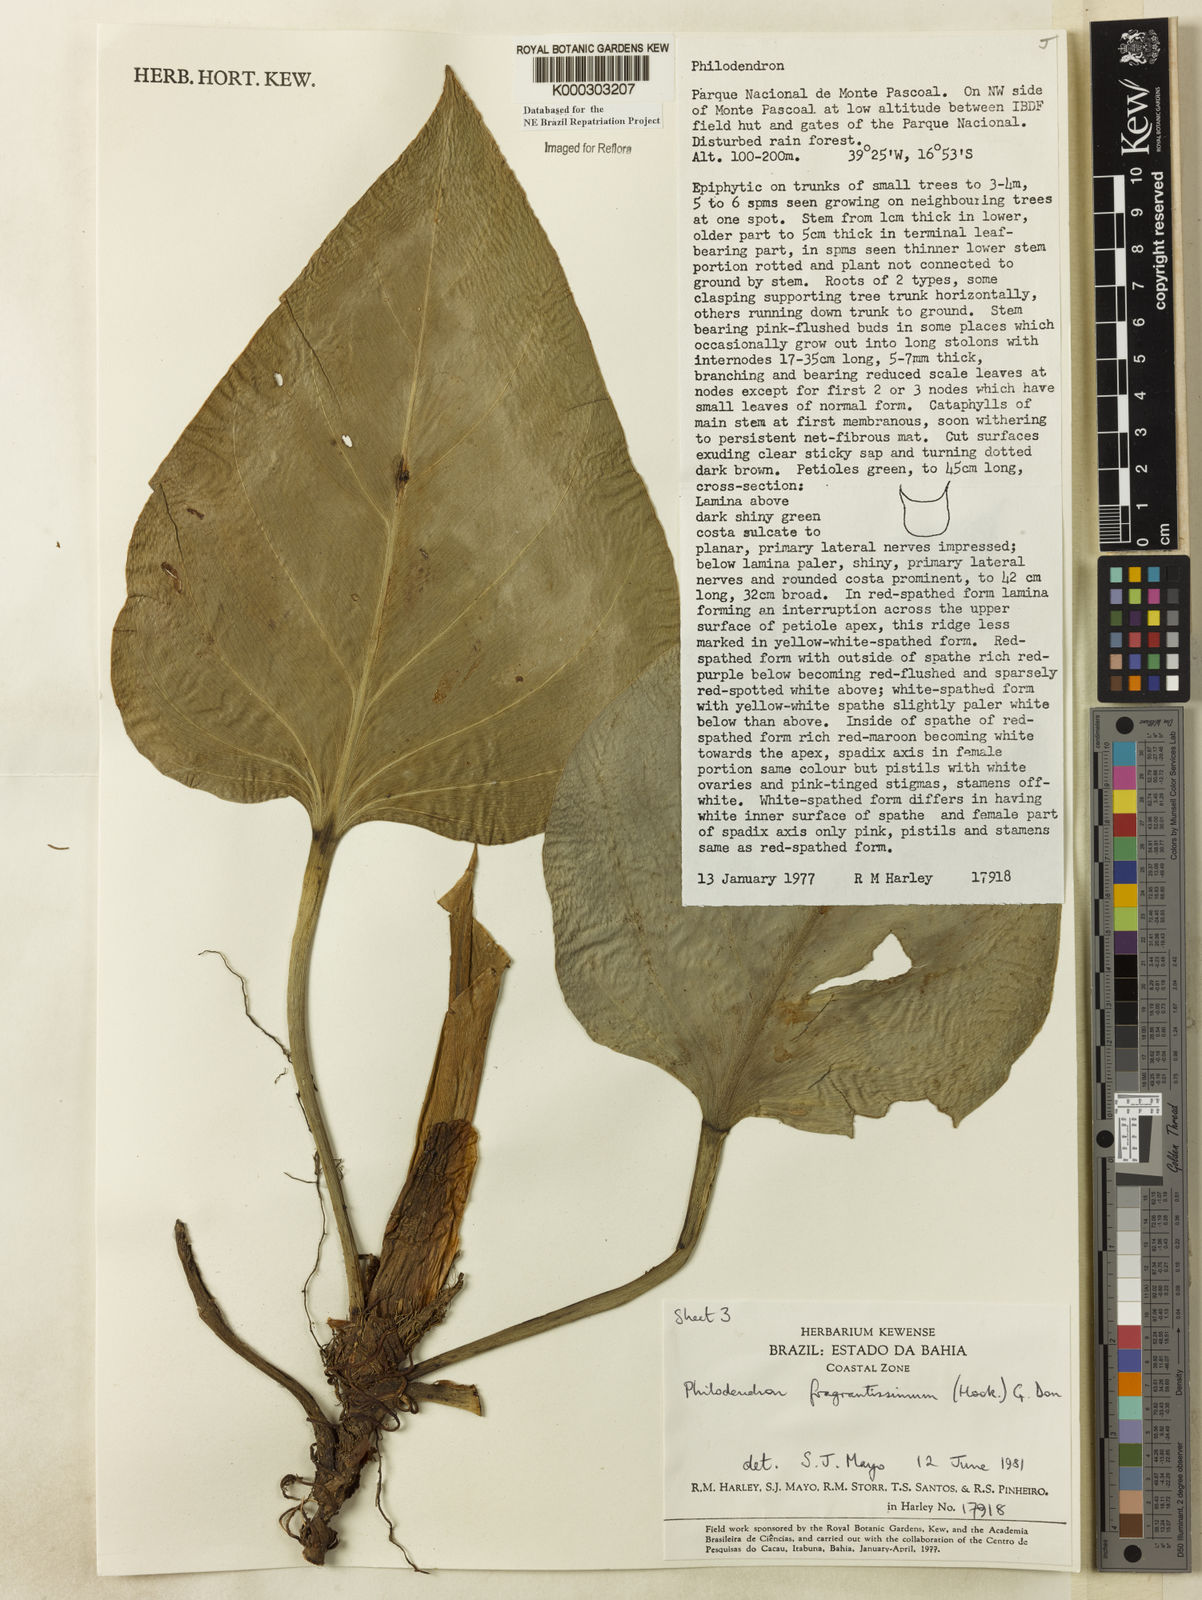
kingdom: Plantae
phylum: Tracheophyta
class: Liliopsida
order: Alismatales
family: Araceae
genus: Philodendron
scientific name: Philodendron fragrantissimum
